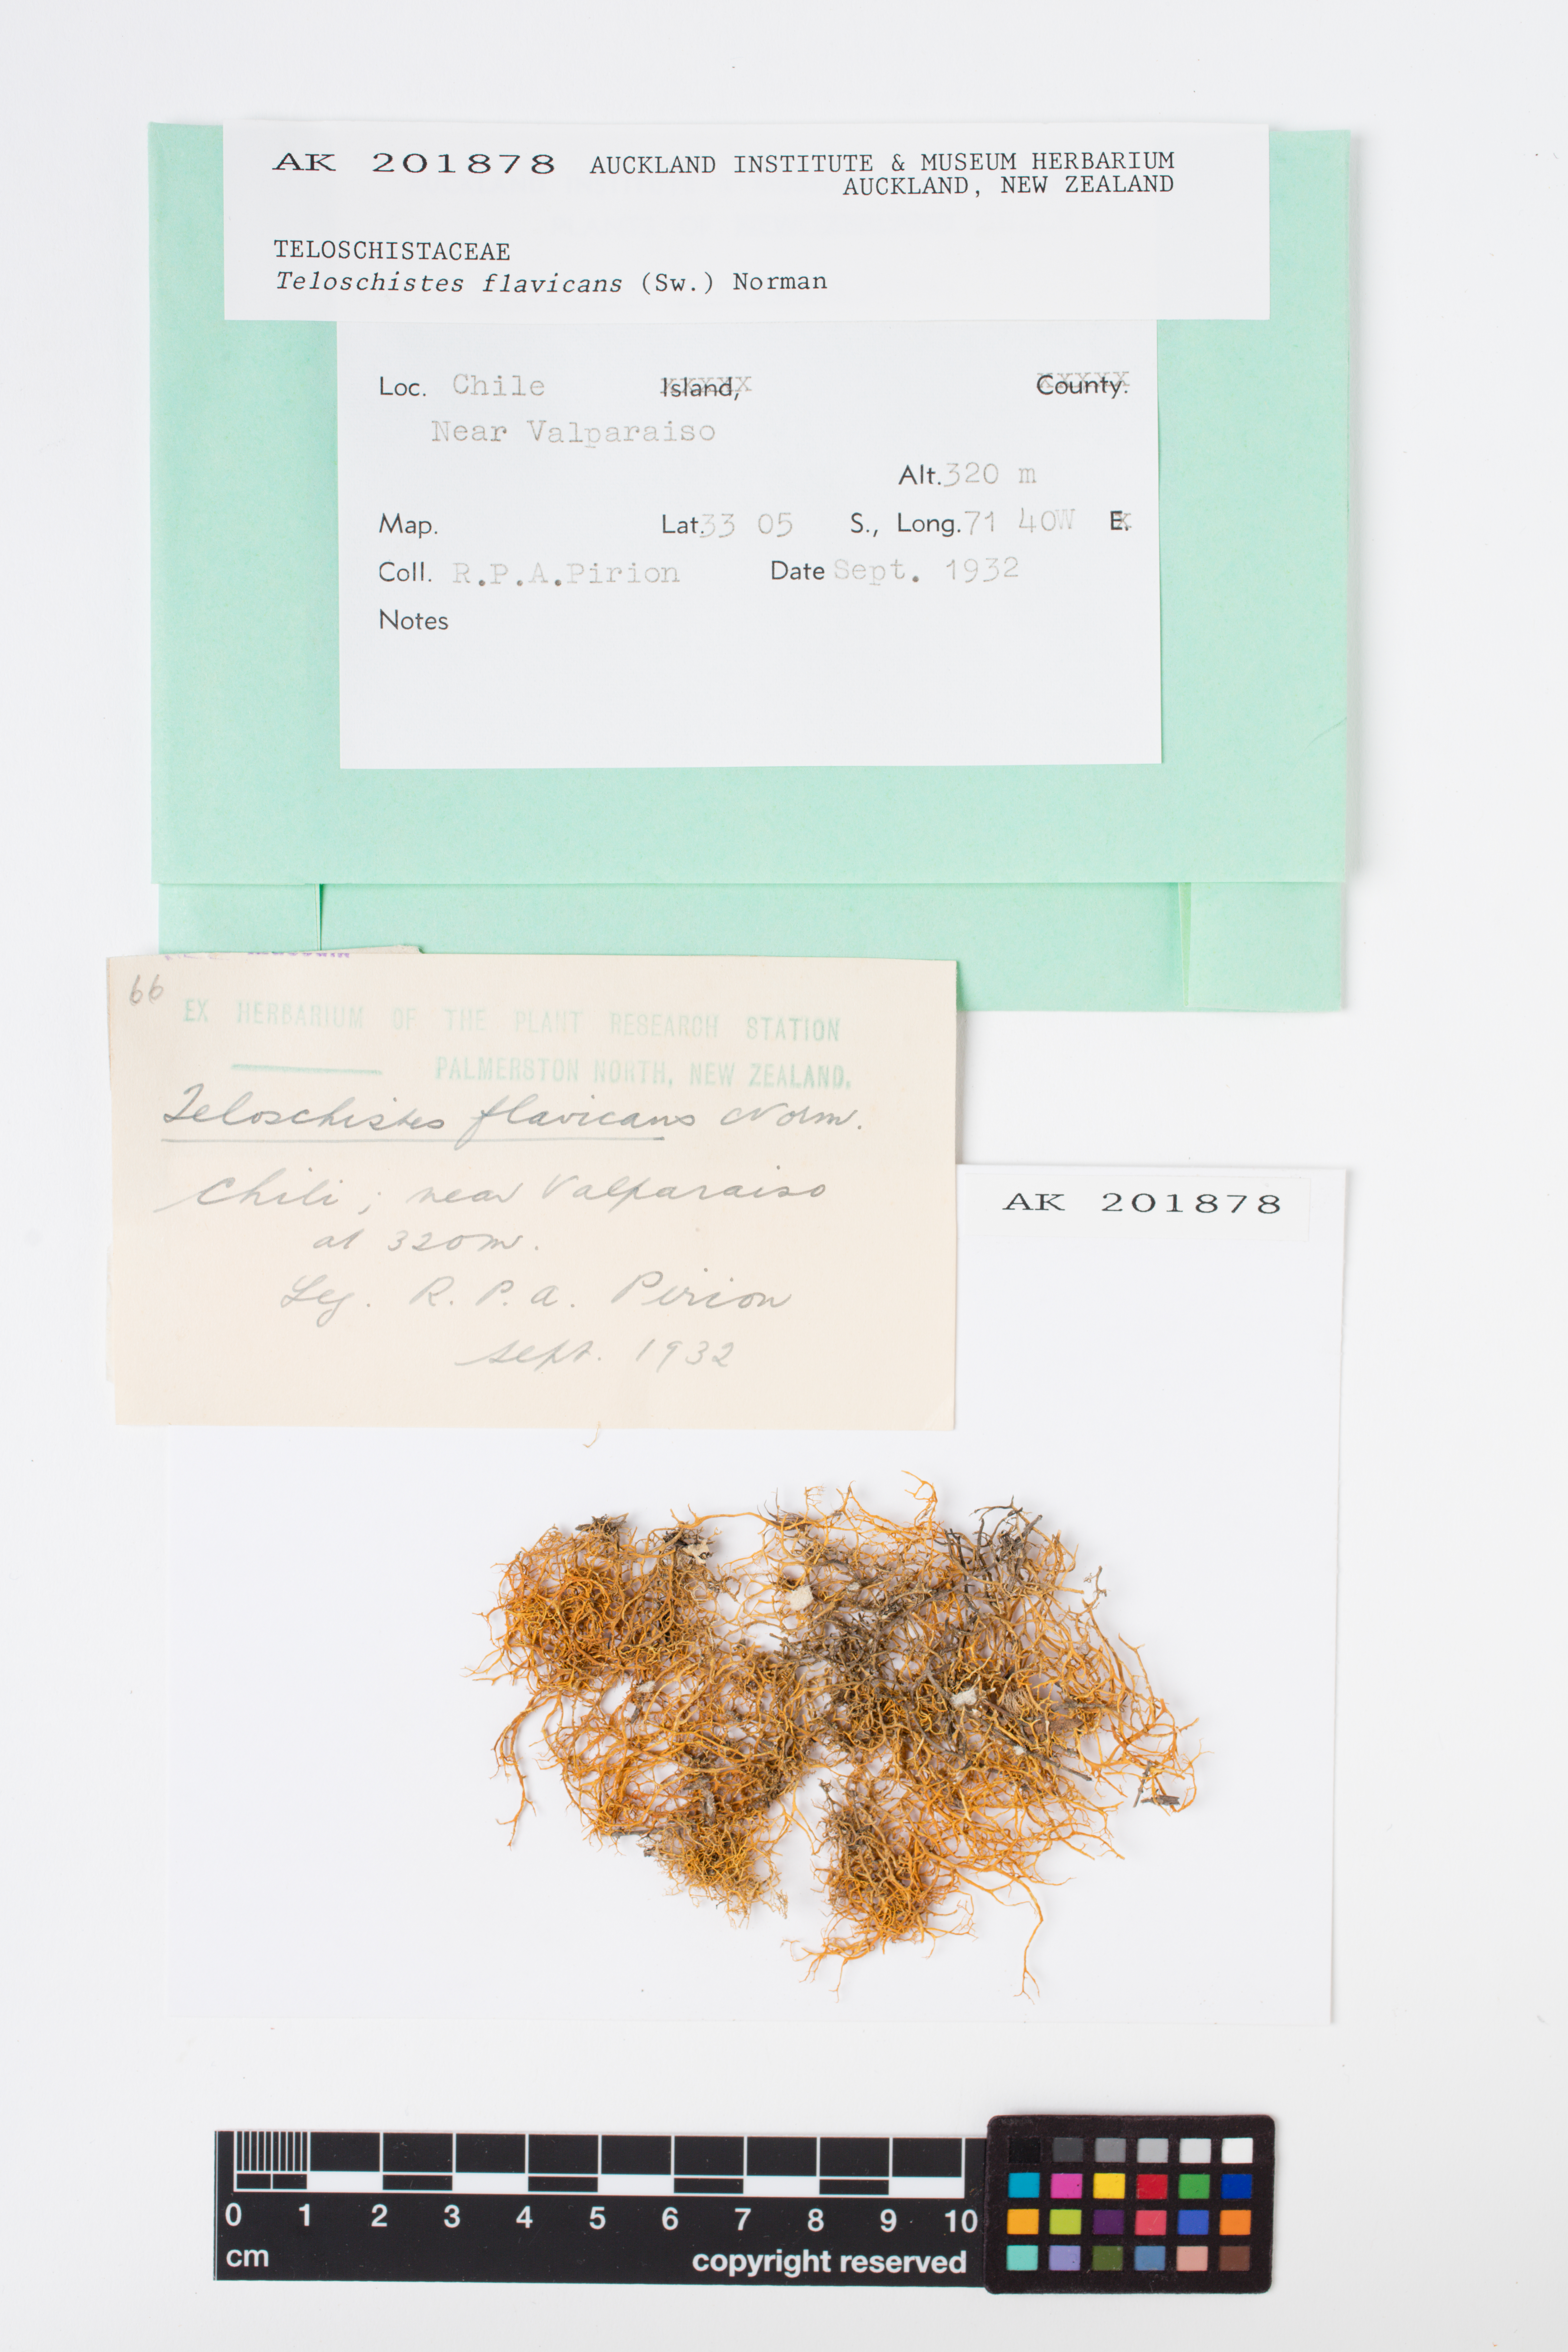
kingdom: Fungi
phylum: Ascomycota
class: Lecanoromycetes
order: Teloschistales
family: Teloschistaceae
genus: Teloschistes
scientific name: Teloschistes flavicans
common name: Golden hair-lichen
